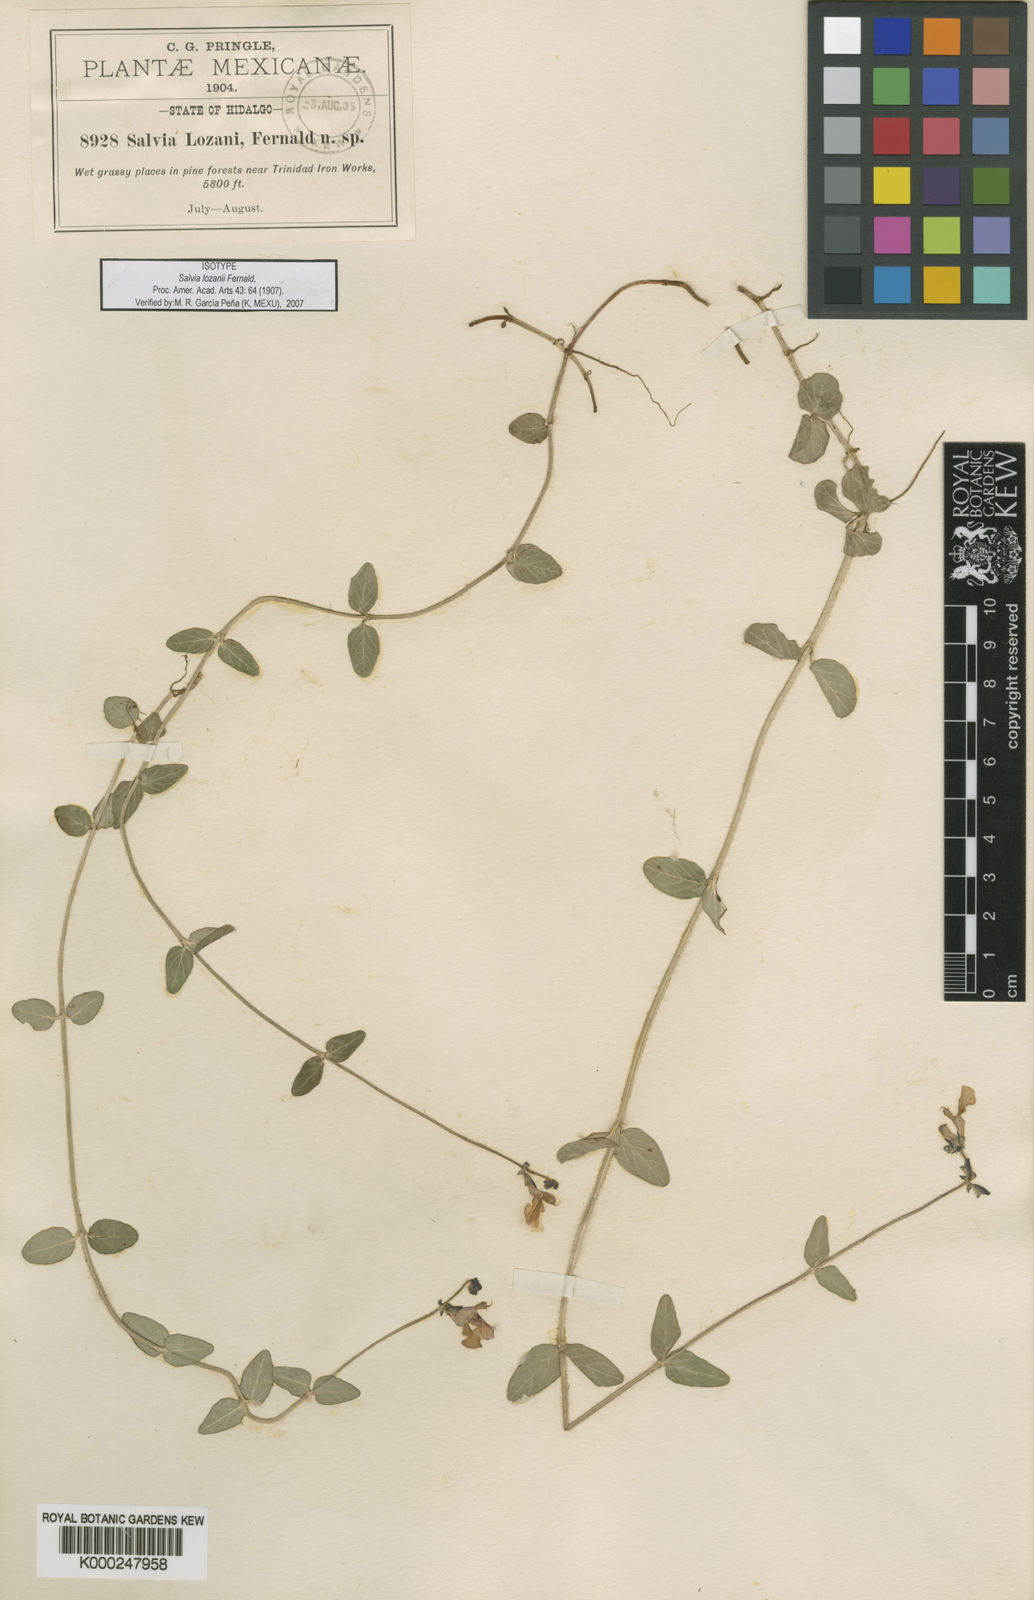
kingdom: Plantae
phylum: Tracheophyta
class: Magnoliopsida
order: Lamiales
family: Lamiaceae
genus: Salvia
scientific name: Salvia lozanii
